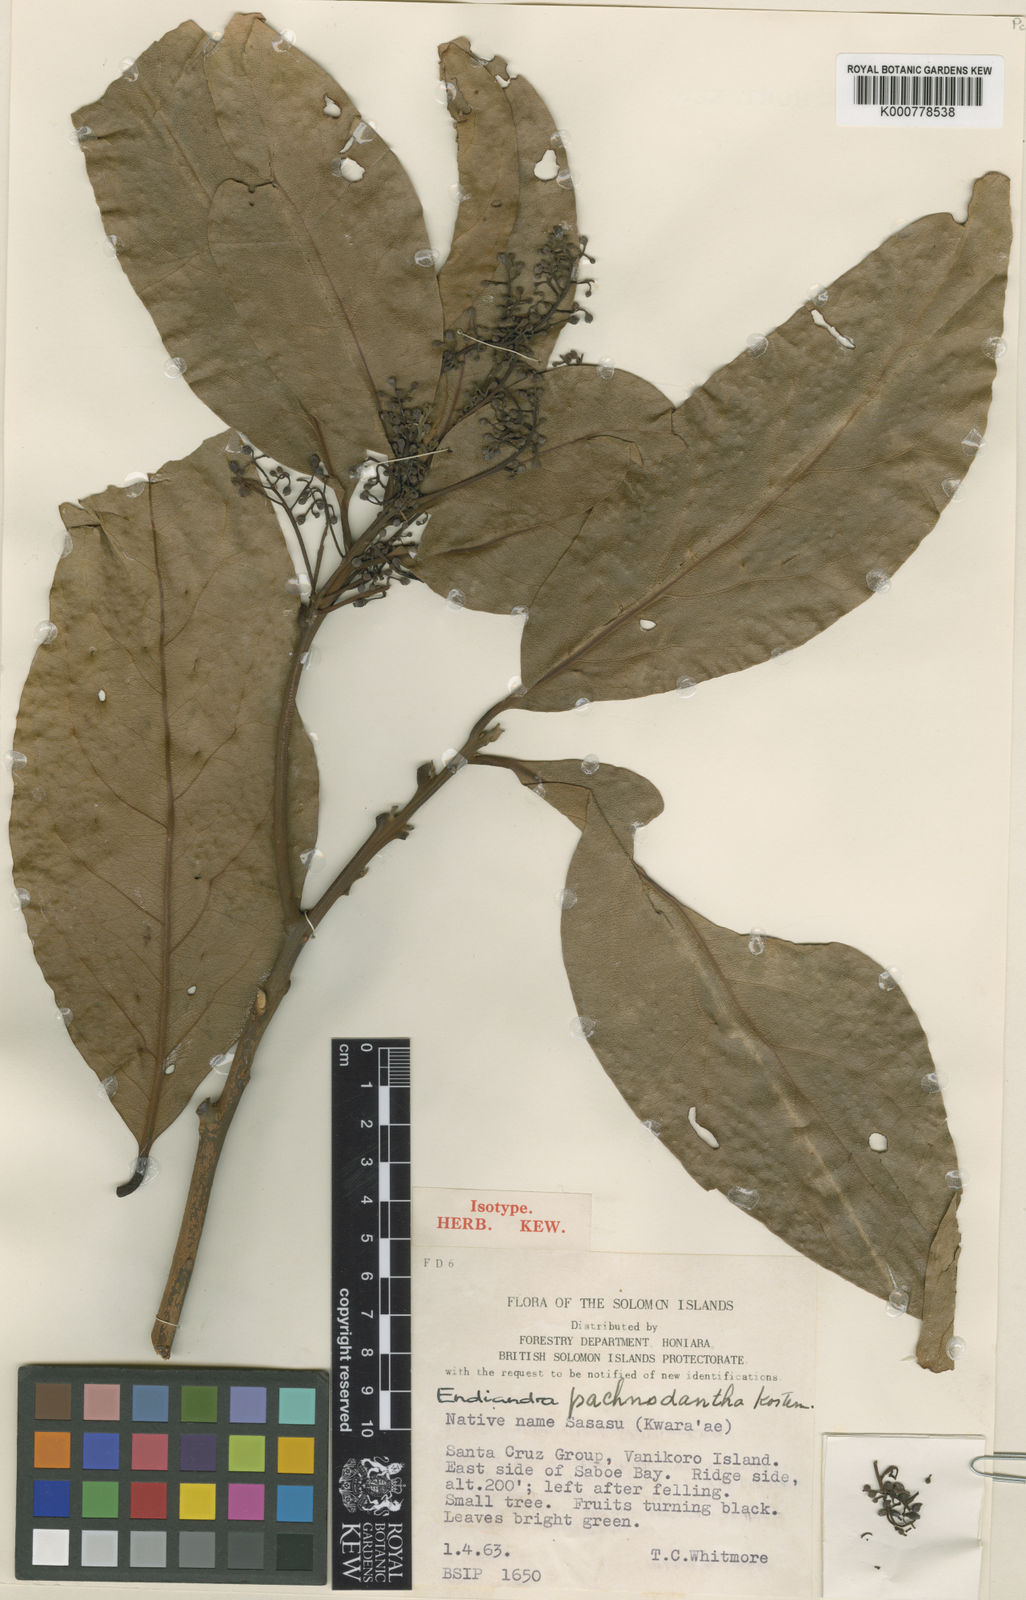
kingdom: Plantae
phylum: Tracheophyta
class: Magnoliopsida
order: Laurales
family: Lauraceae
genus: Endiandra
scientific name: Endiandra
